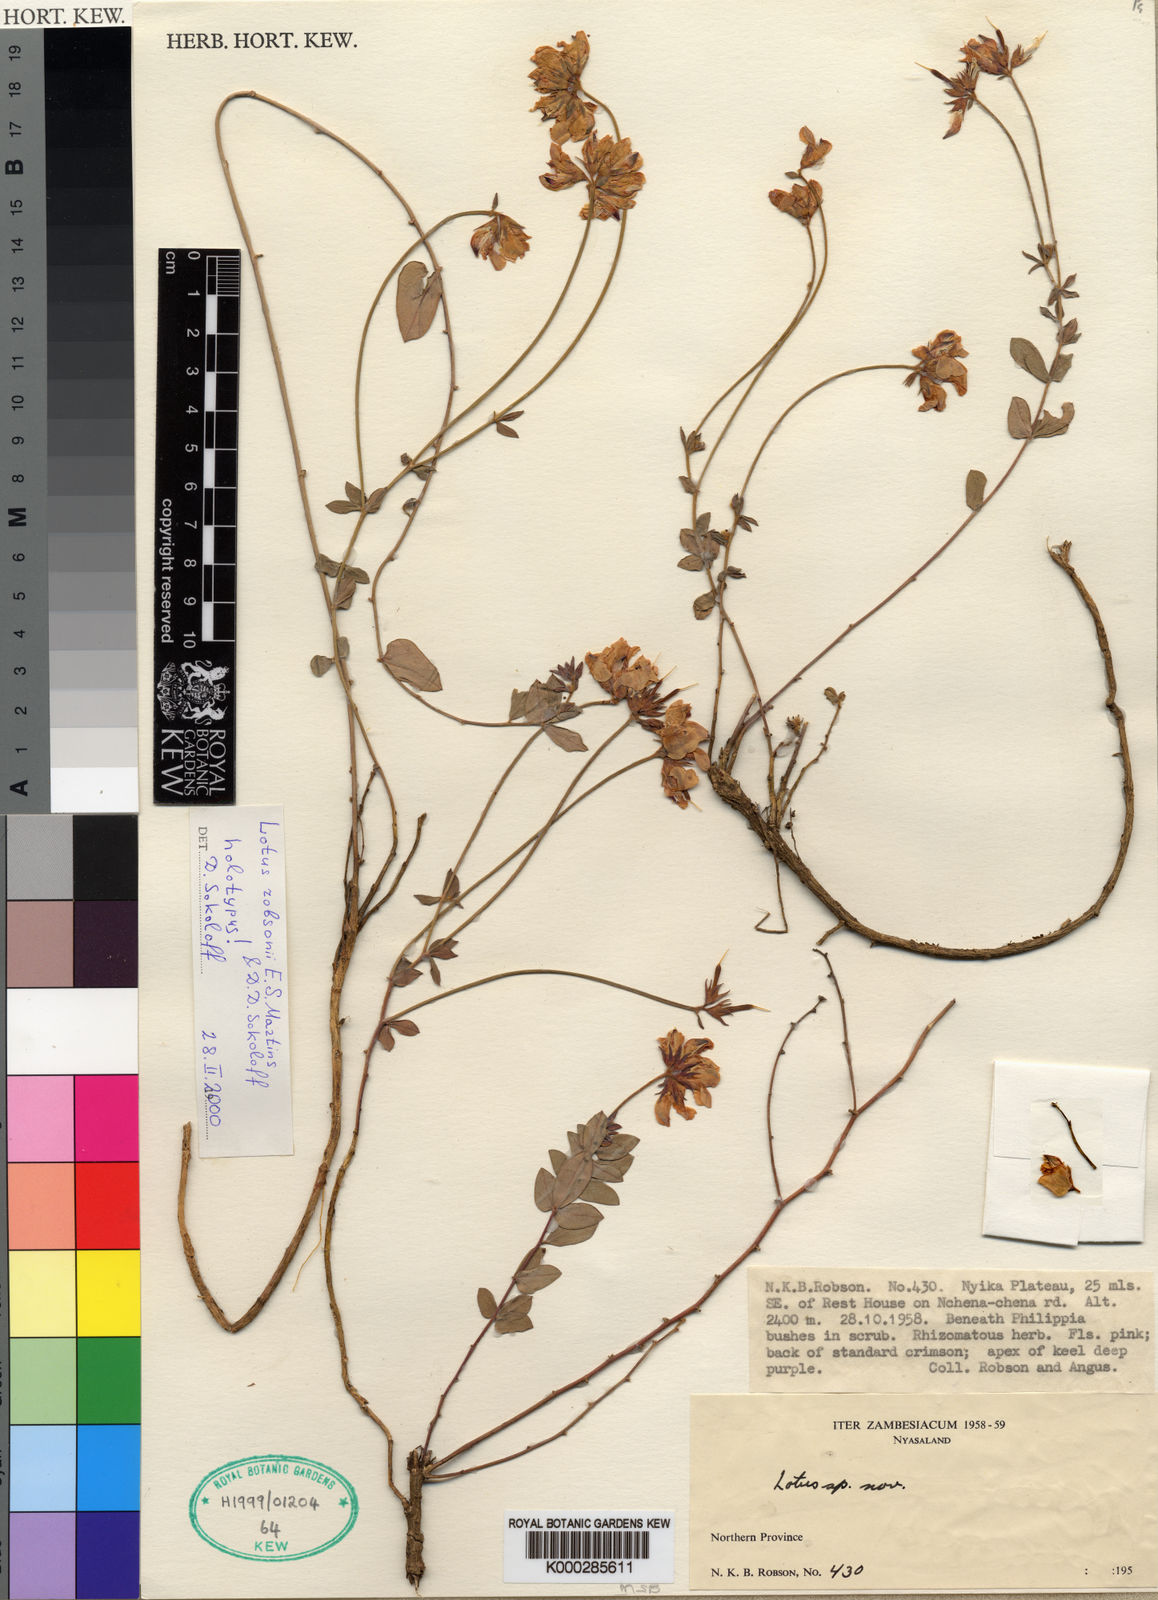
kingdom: Plantae
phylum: Tracheophyta
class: Magnoliopsida
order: Fabales
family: Fabaceae
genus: Lotus
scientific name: Lotus robsonii
